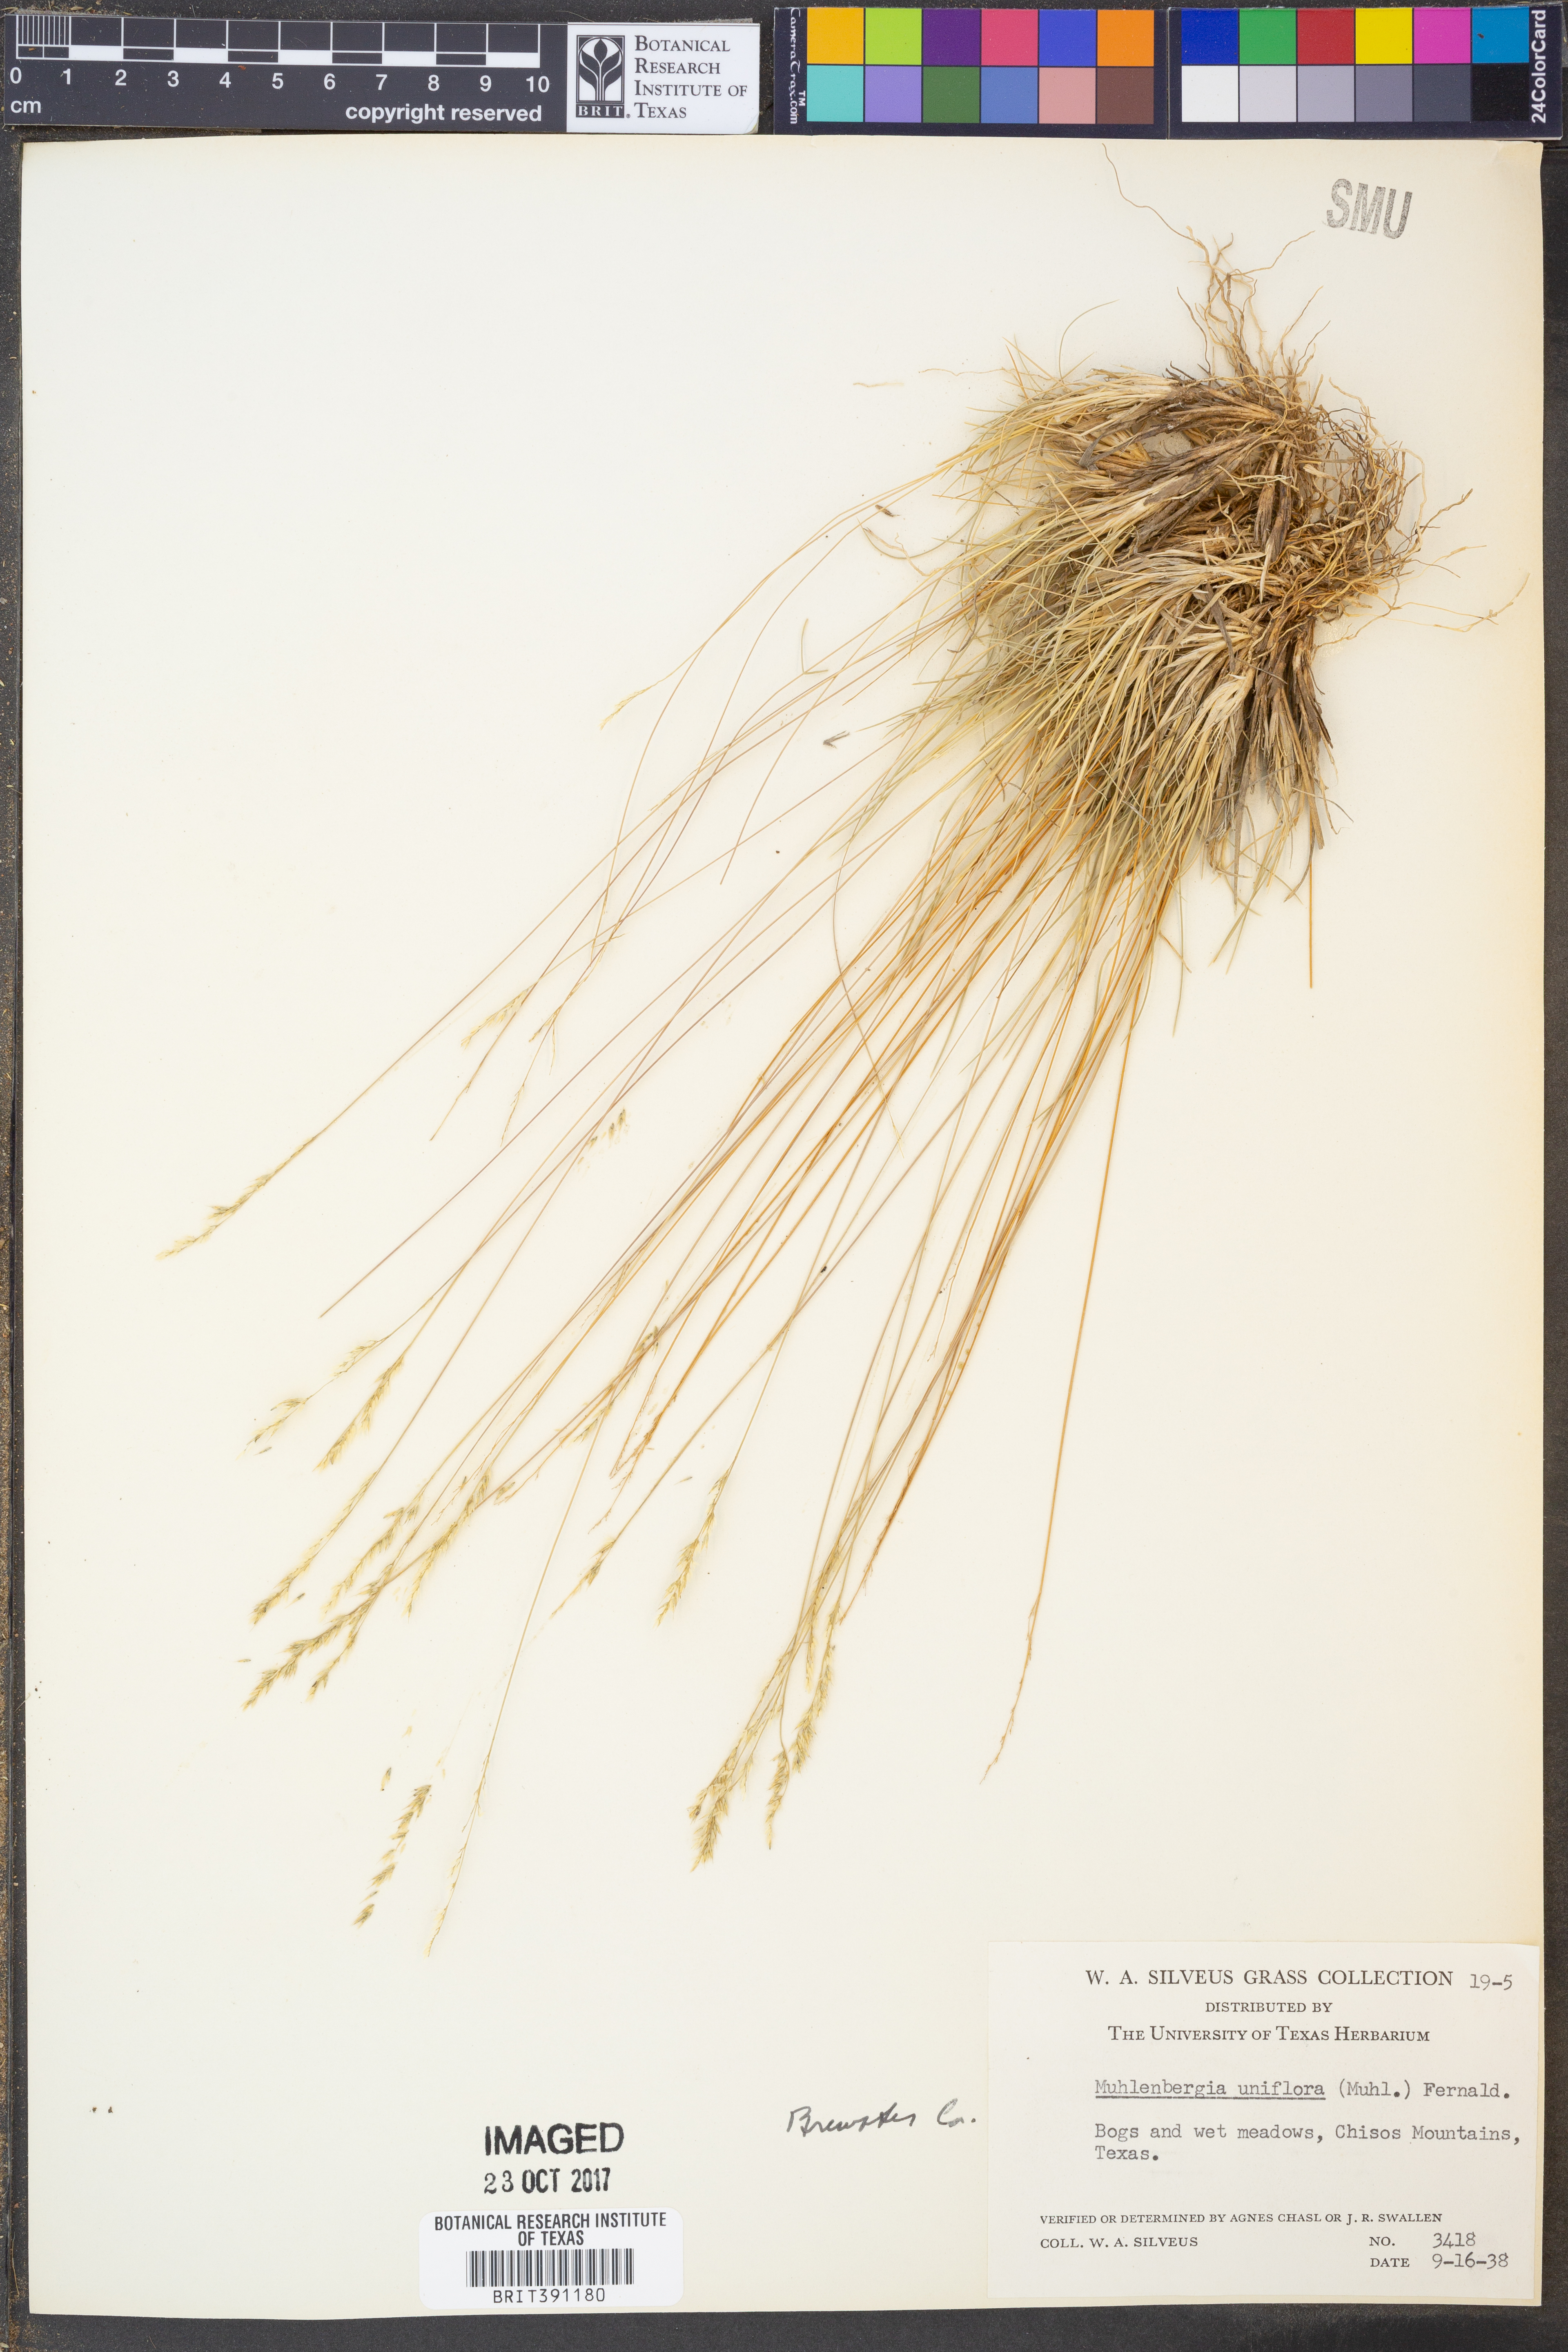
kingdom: Plantae
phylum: Tracheophyta
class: Liliopsida
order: Poales
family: Poaceae
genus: Muhlenbergia
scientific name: Muhlenbergia uniflora
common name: Bog muhly
